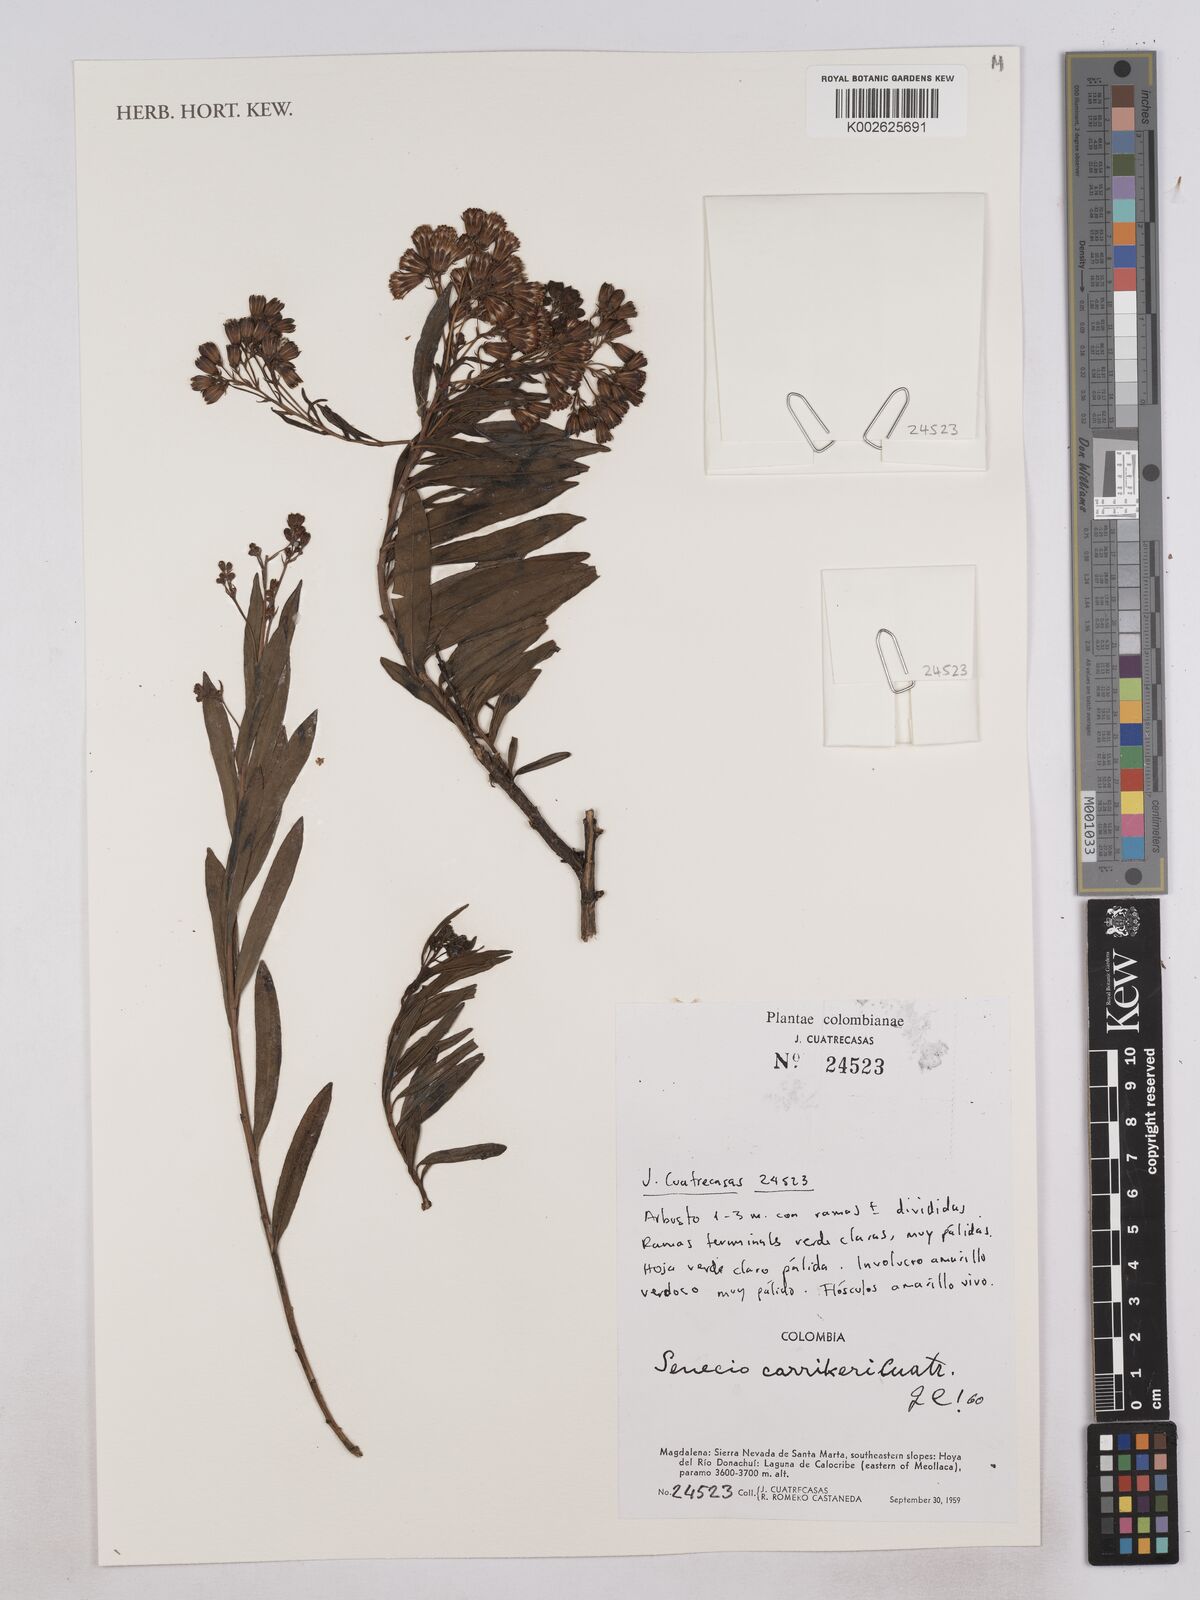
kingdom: Plantae
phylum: Tracheophyta
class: Magnoliopsida
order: Asterales
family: Asteraceae
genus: Monticalia
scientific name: Monticalia carrikeri
